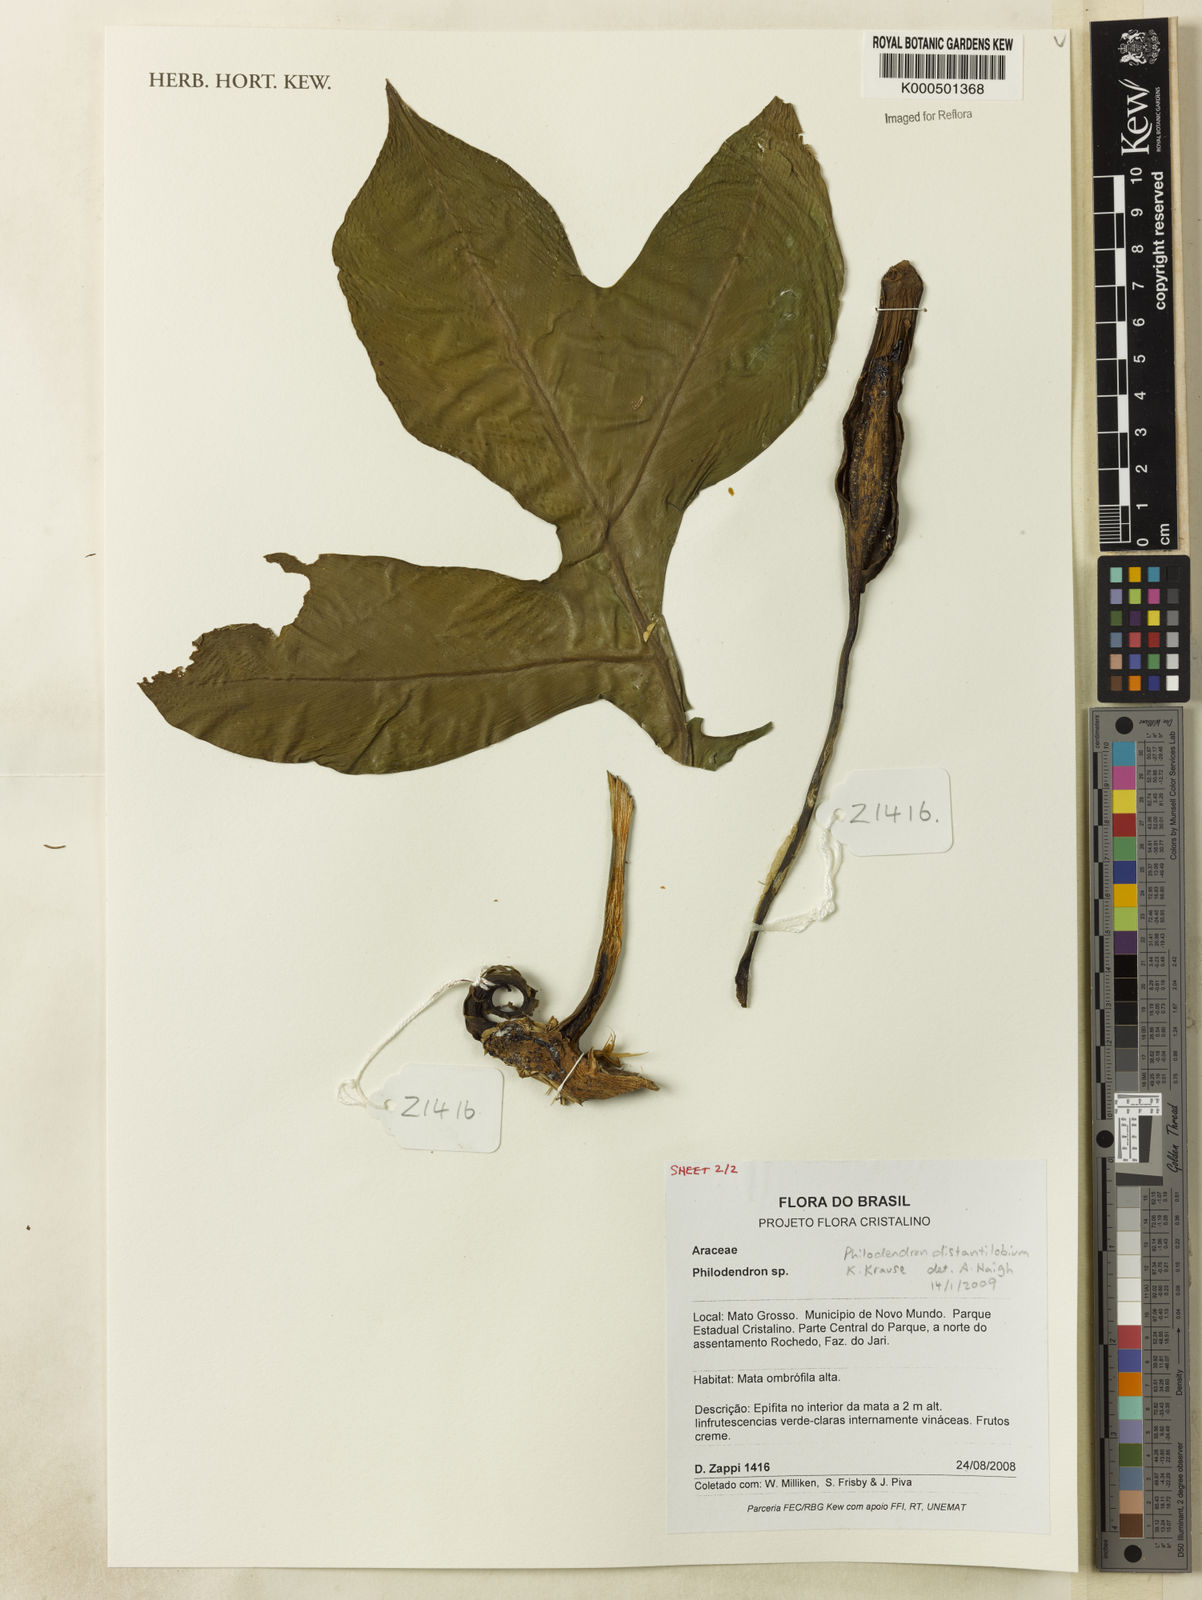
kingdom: Plantae
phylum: Tracheophyta
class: Liliopsida
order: Alismatales
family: Araceae
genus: Philodendron
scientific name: Philodendron
